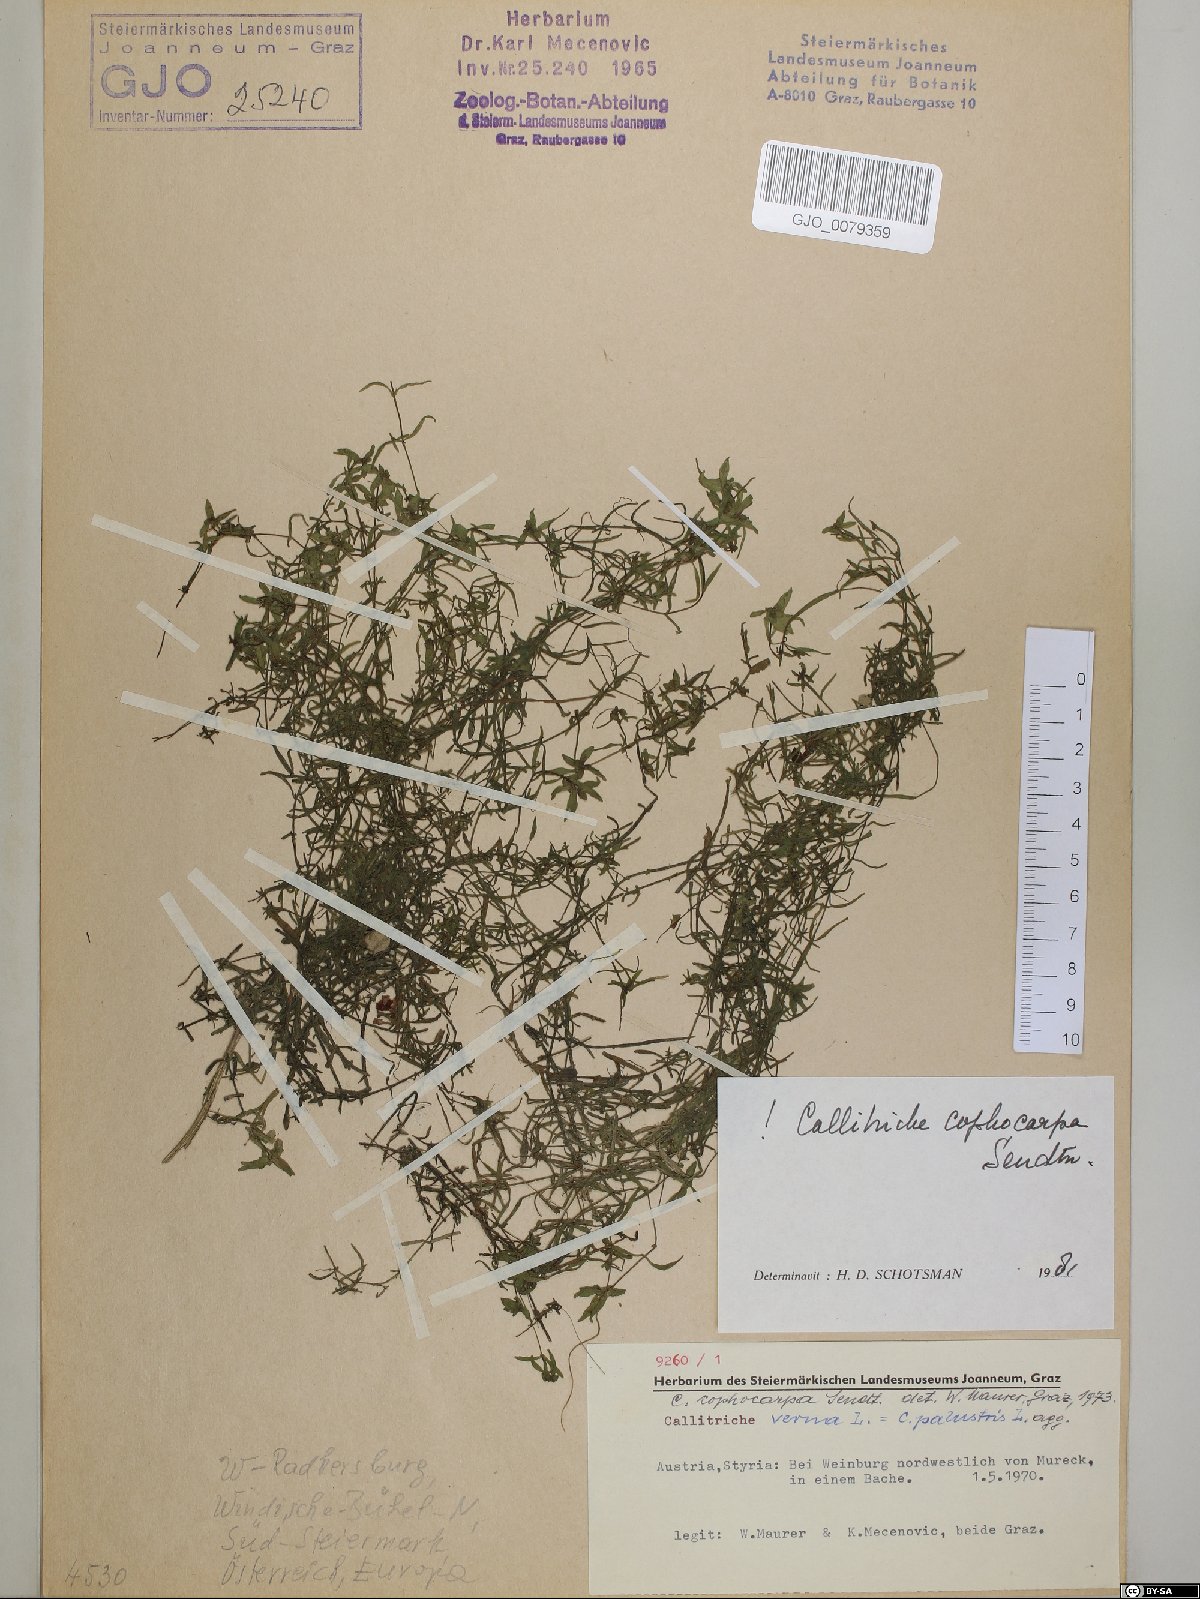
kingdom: Plantae
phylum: Tracheophyta
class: Magnoliopsida
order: Lamiales
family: Plantaginaceae
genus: Callitriche
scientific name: Callitriche cophocarpa
